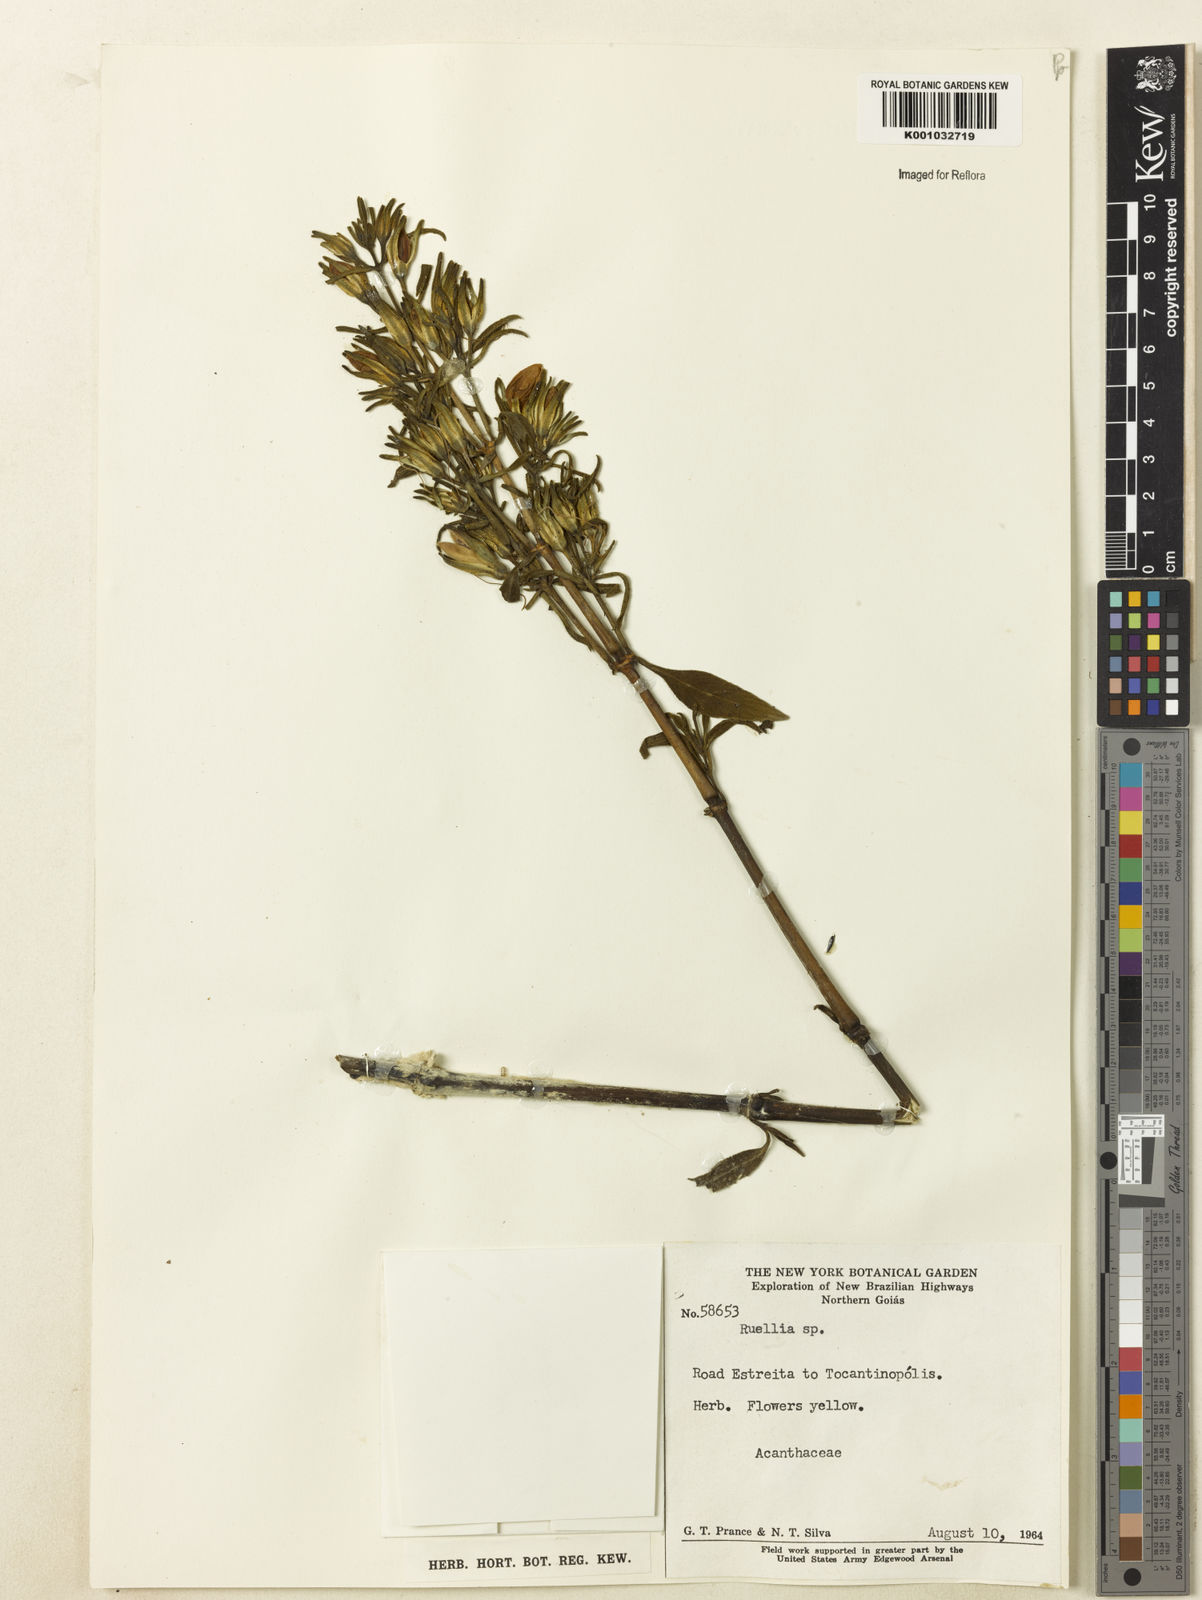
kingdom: Plantae
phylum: Tracheophyta
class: Magnoliopsida
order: Lamiales
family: Acanthaceae
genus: Ruellia
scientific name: Ruellia
